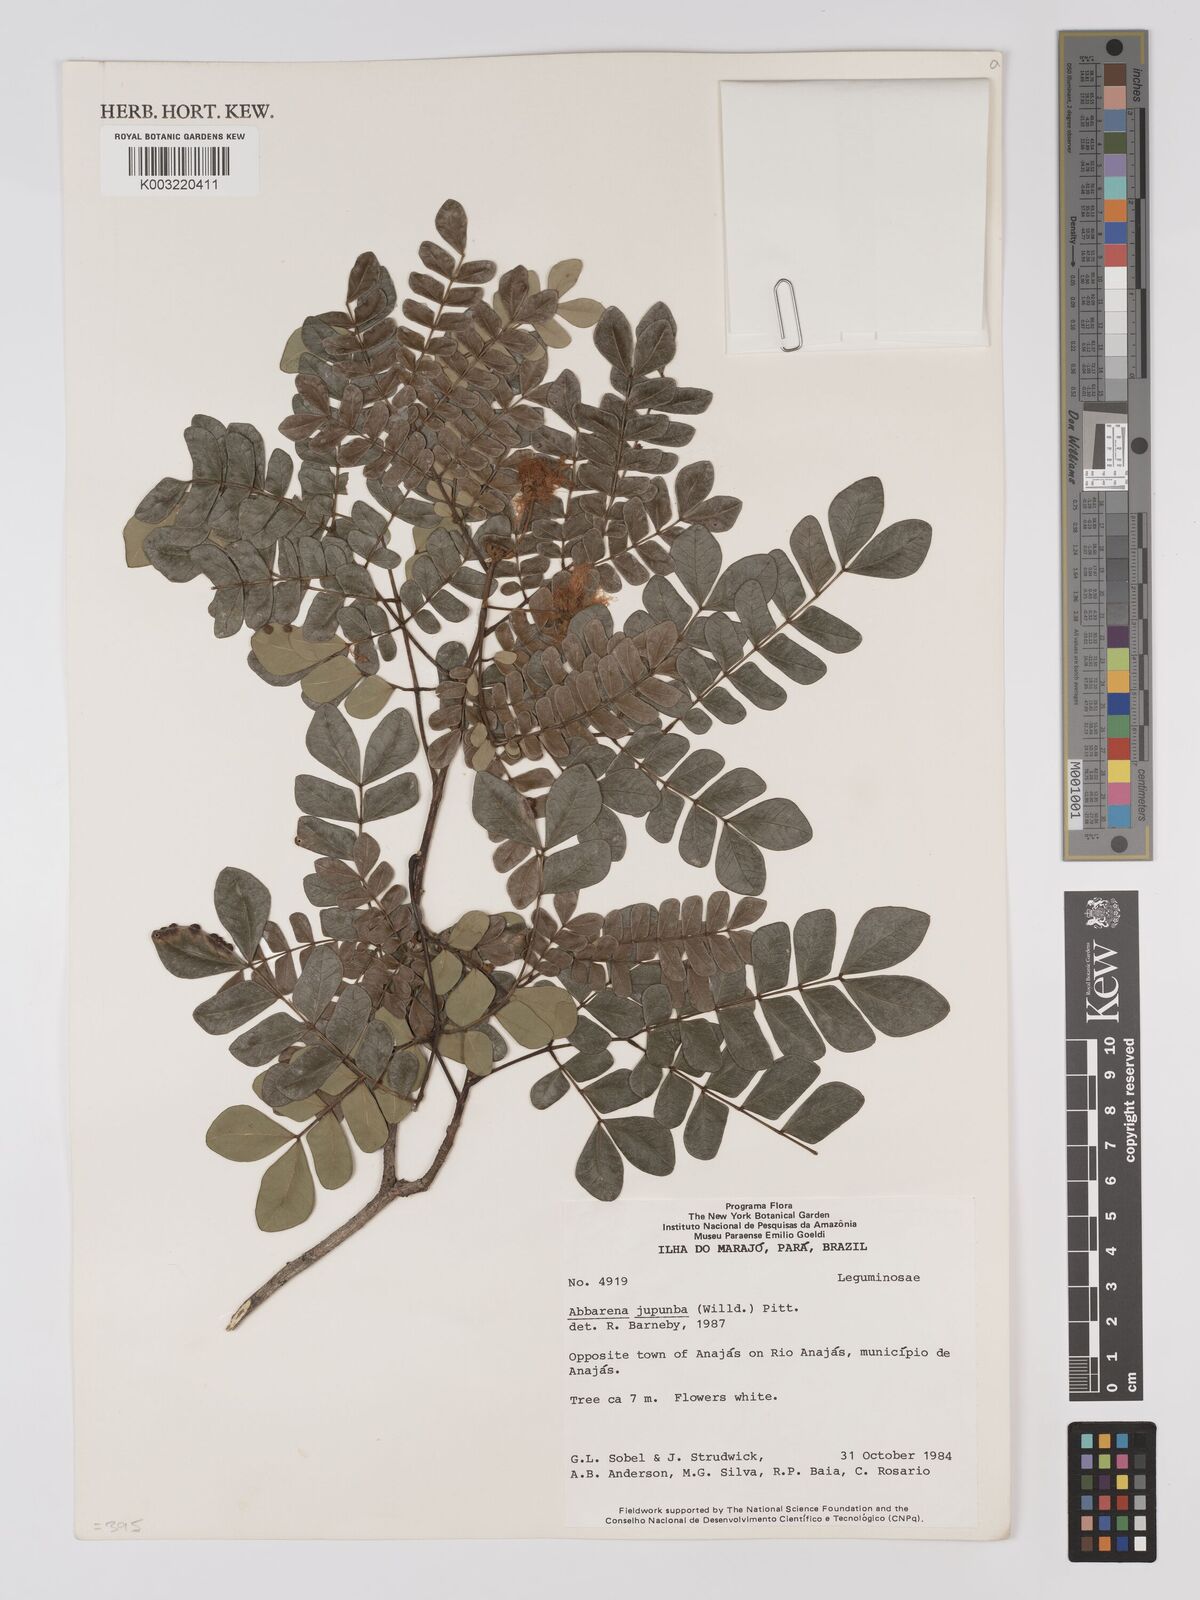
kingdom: Plantae
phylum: Tracheophyta
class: Magnoliopsida
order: Fabales
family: Fabaceae
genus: Jupunba
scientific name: Jupunba trapezifolia
